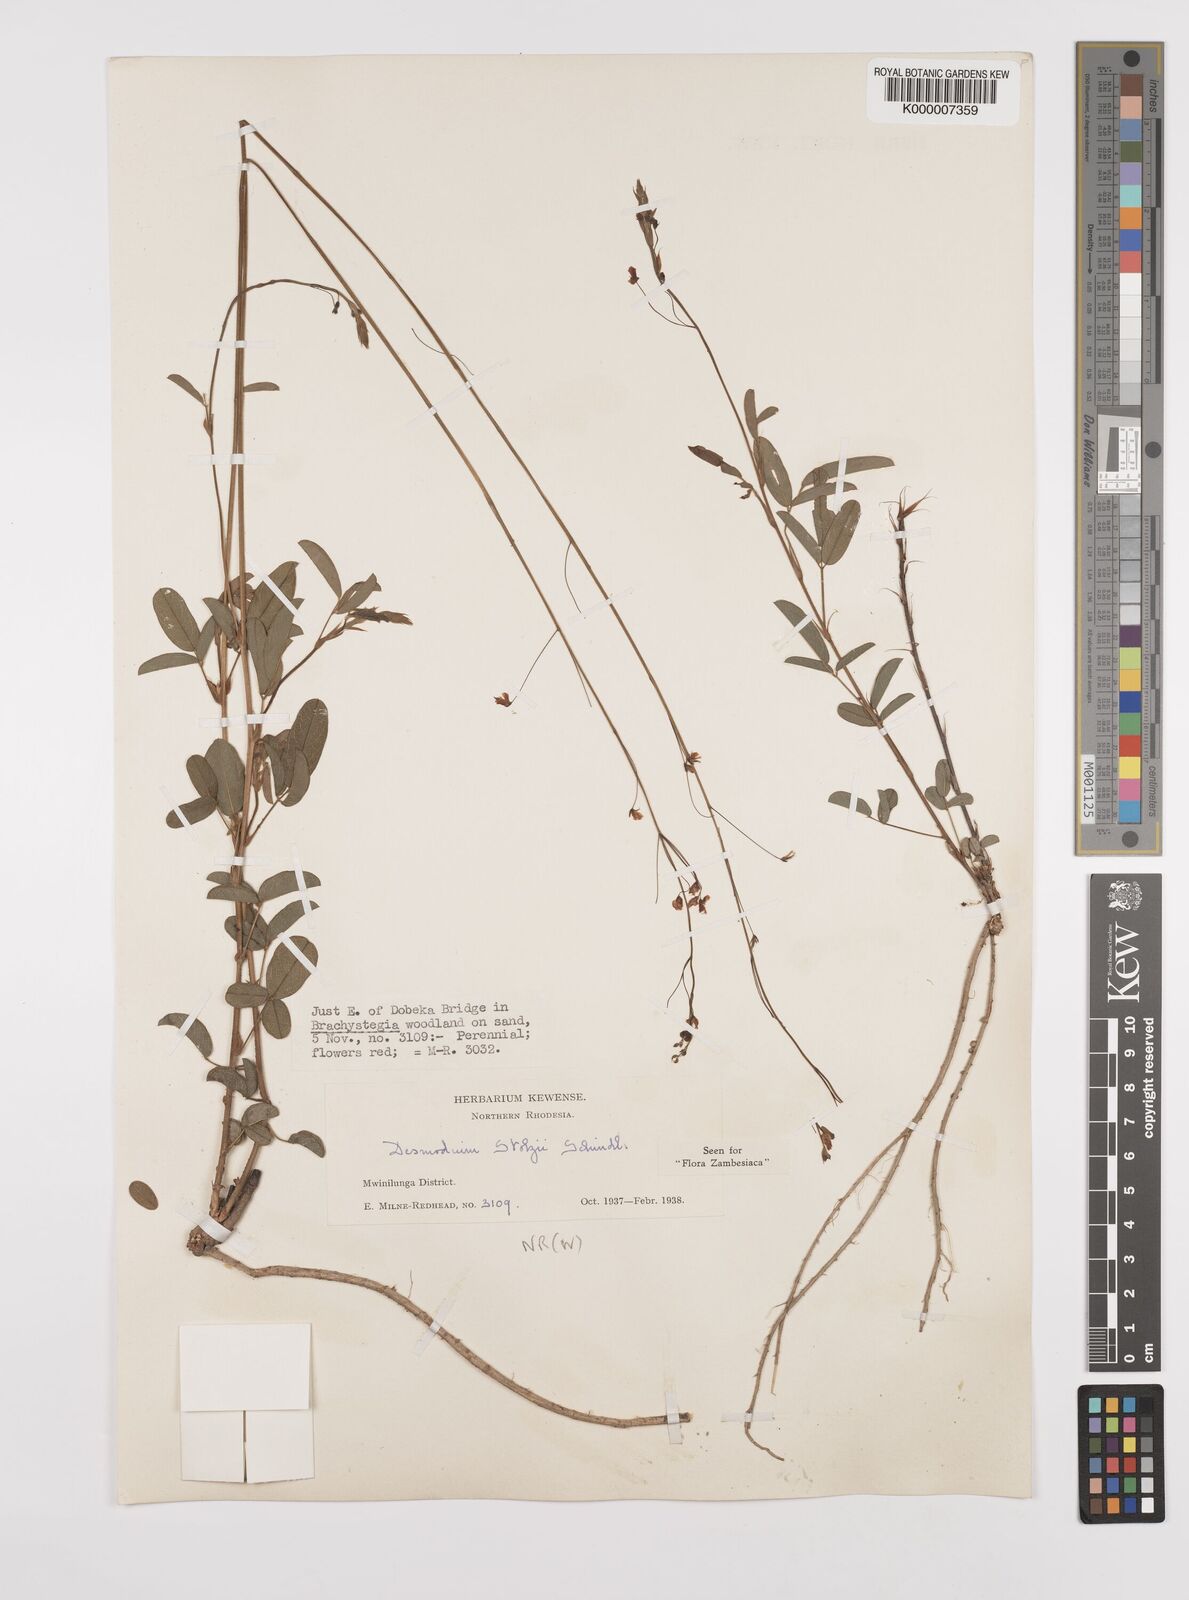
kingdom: Plantae
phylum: Tracheophyta
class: Magnoliopsida
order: Fabales
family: Fabaceae
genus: Grona
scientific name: Grona stolzii
